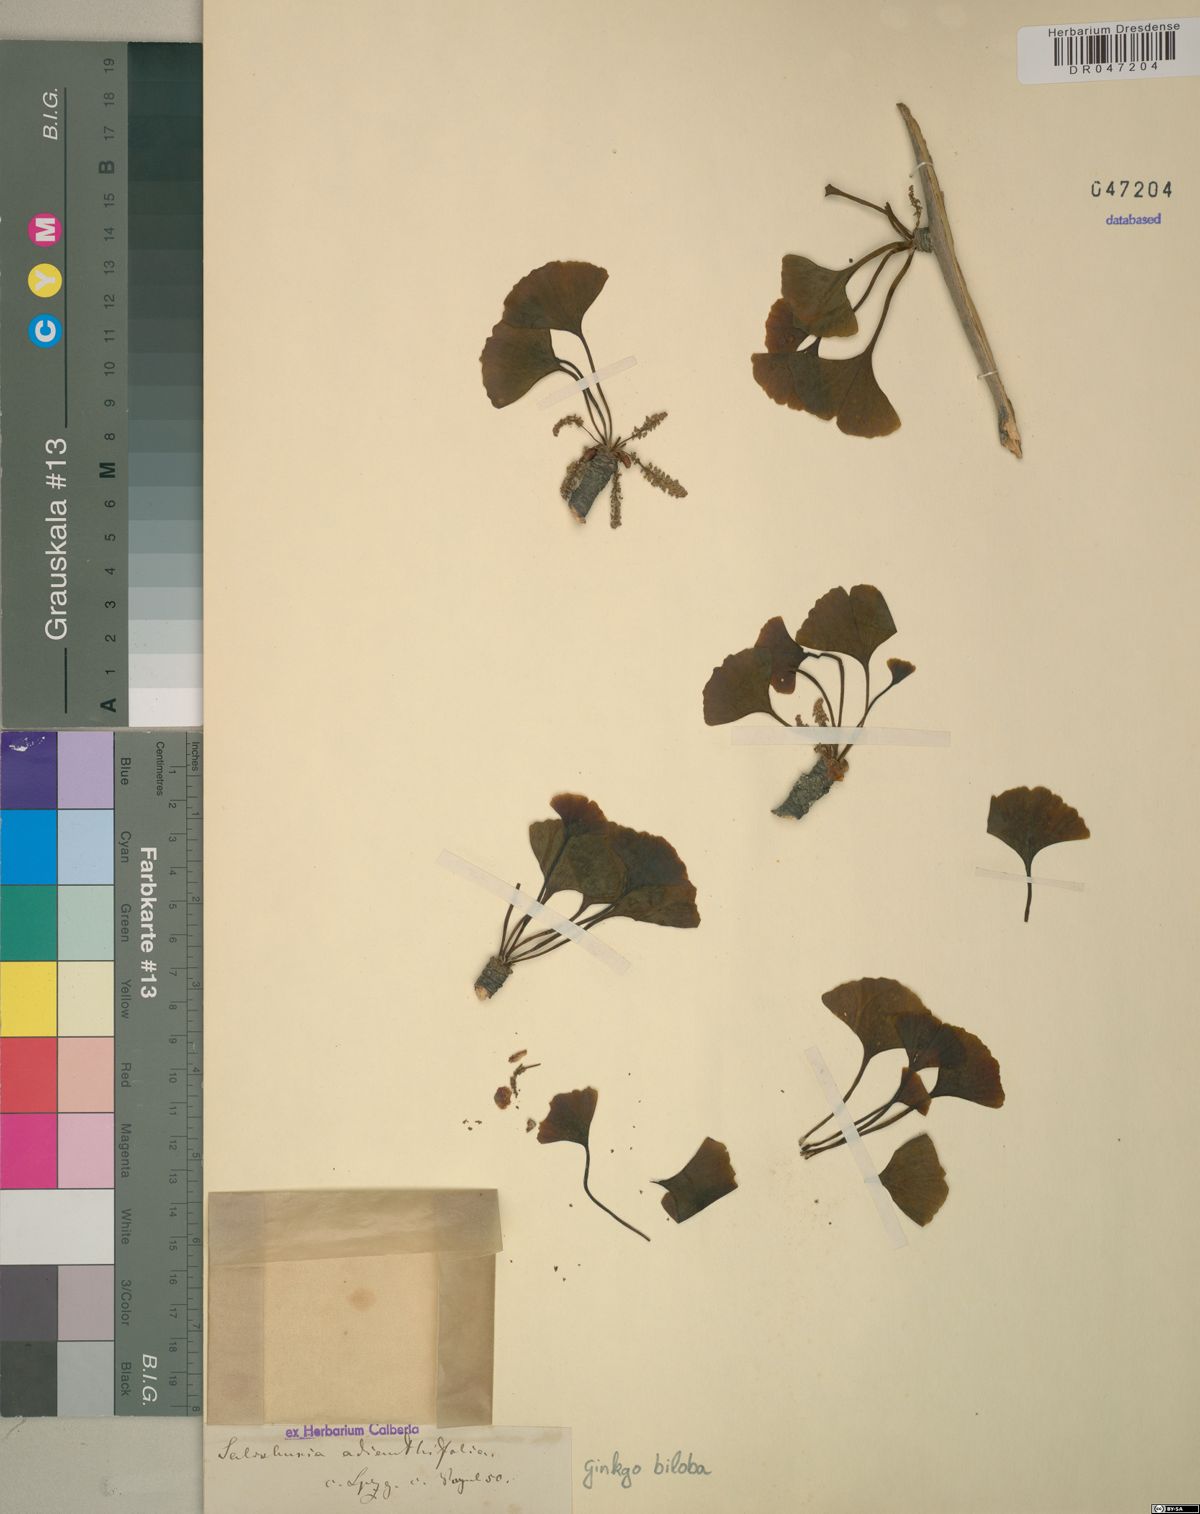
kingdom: Plantae
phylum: Tracheophyta
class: Ginkgoopsida
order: Ginkgoales
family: Ginkgoaceae
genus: Ginkgo
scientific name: Ginkgo biloba
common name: Ginkgo
